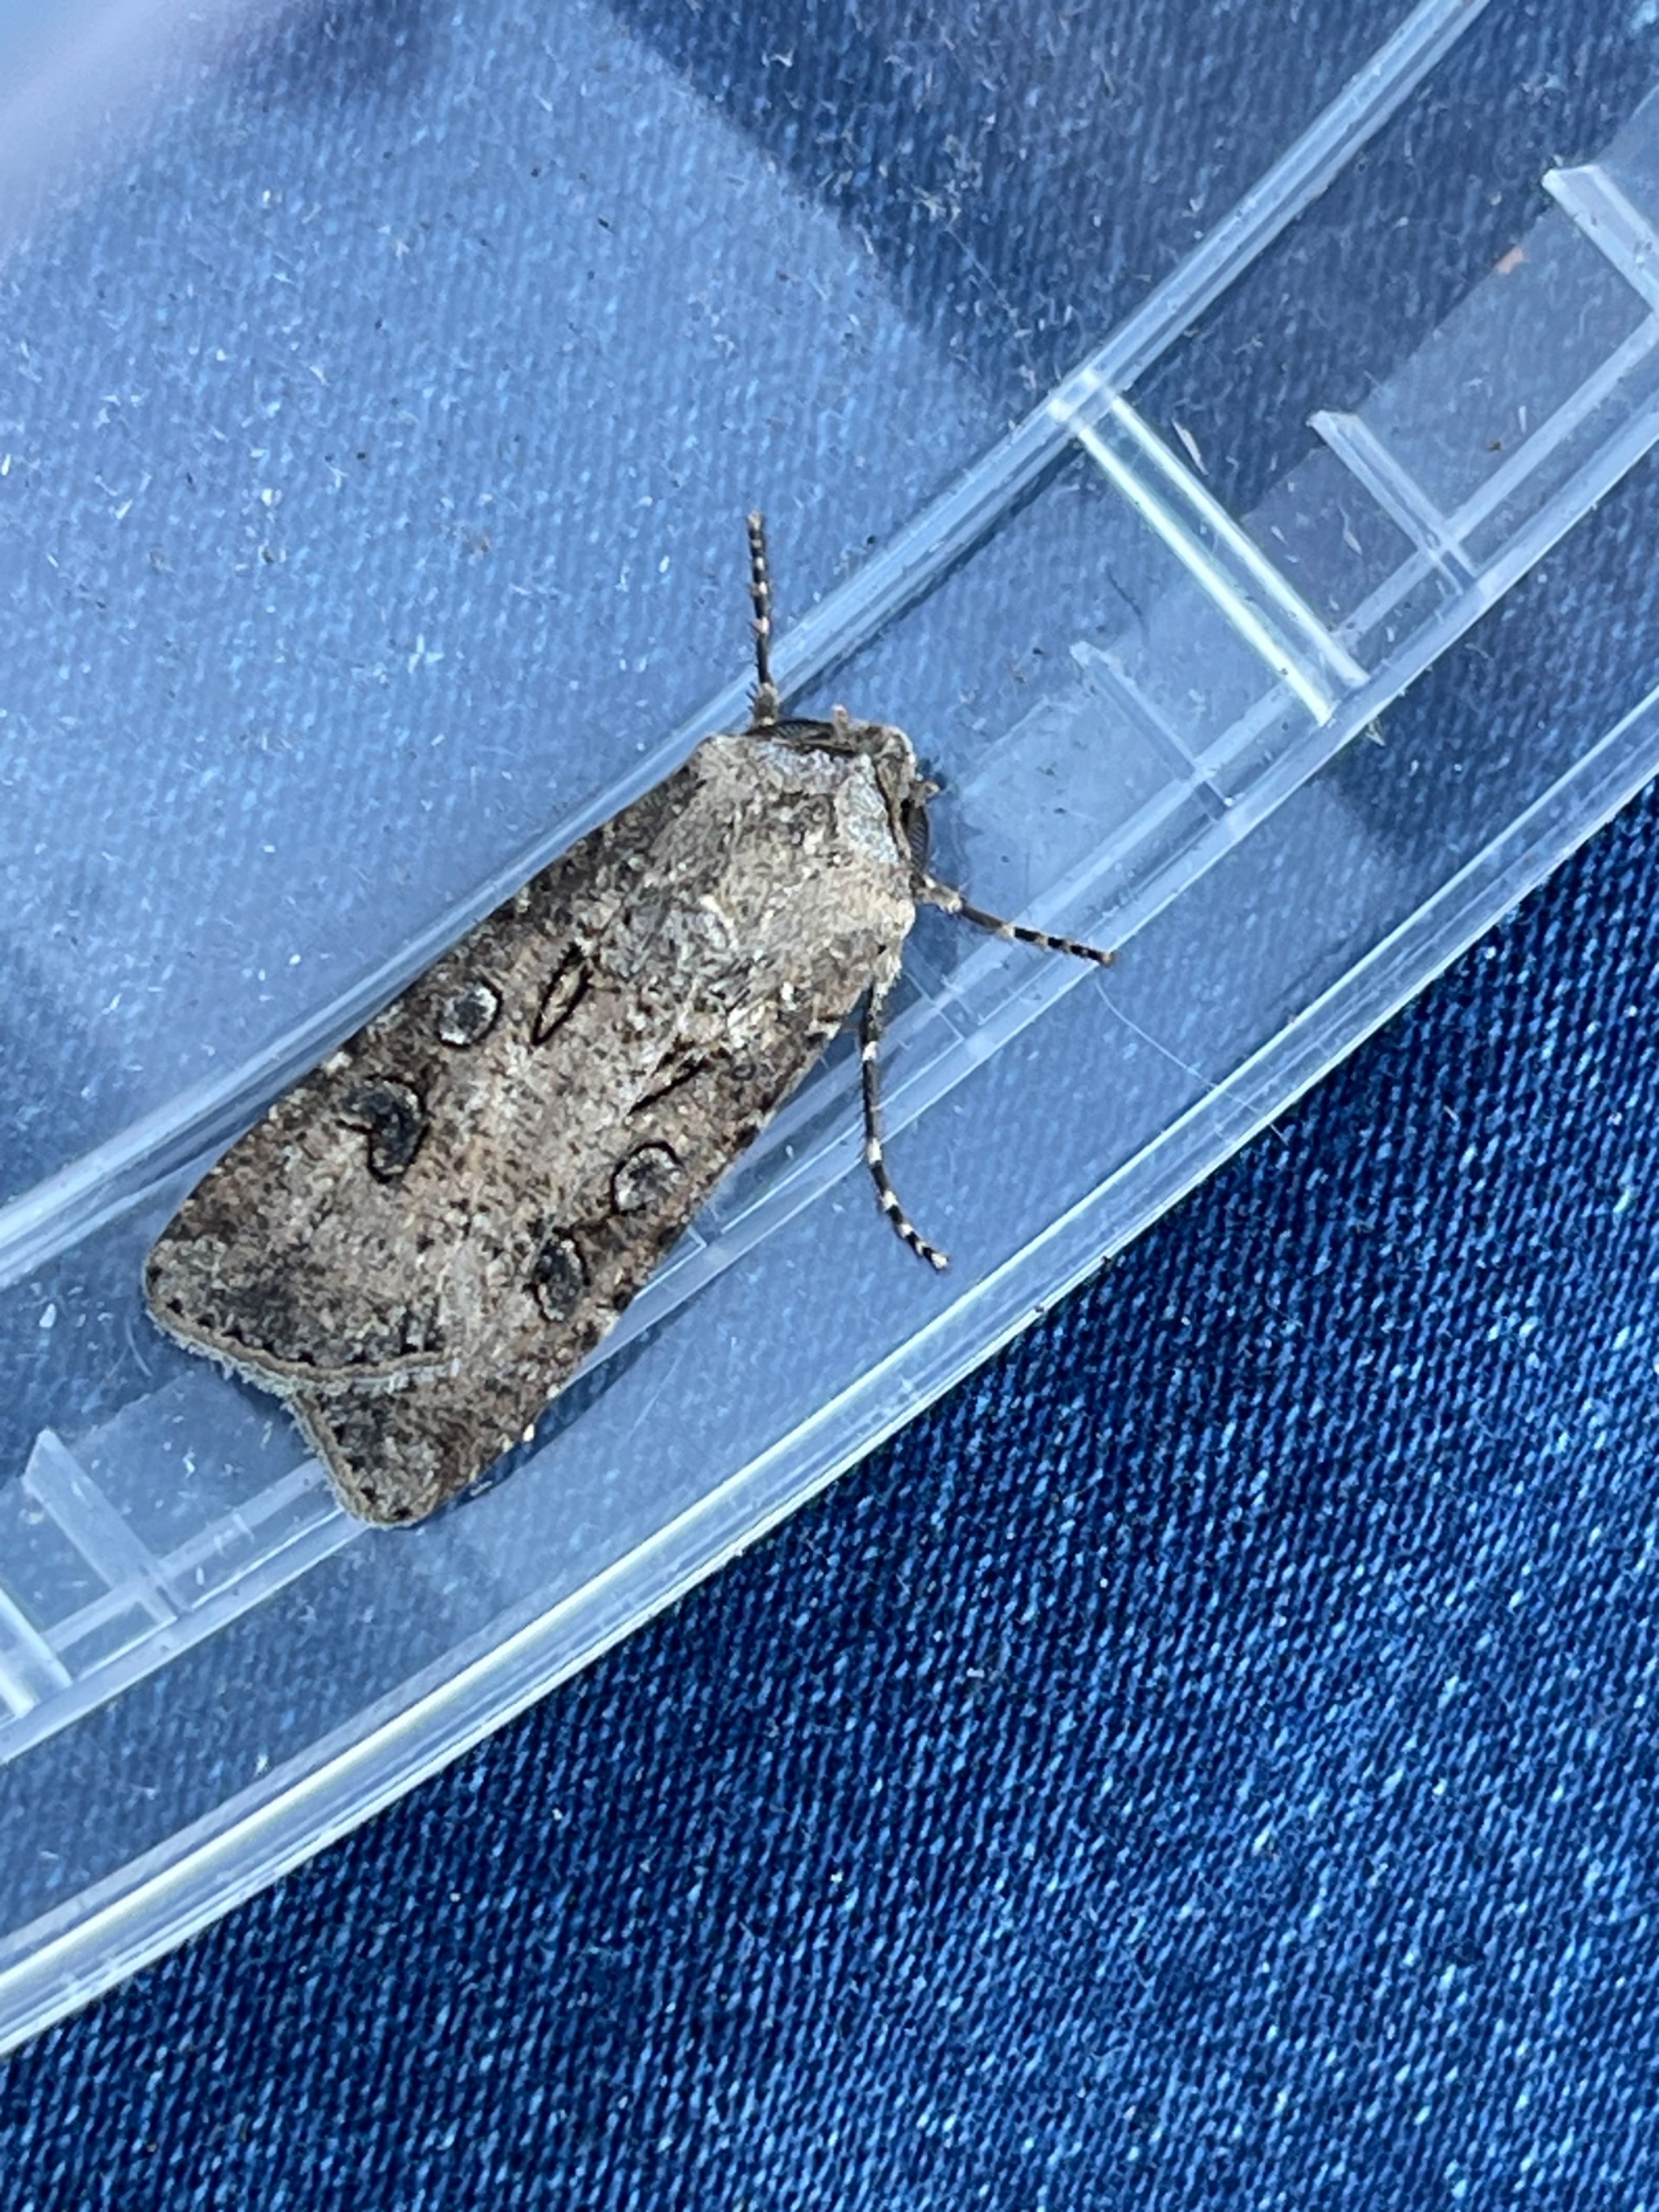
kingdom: Animalia
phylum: Arthropoda
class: Insecta
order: Lepidoptera
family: Noctuidae
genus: Agrotis
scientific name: Agrotis segetum
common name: Agerugle
